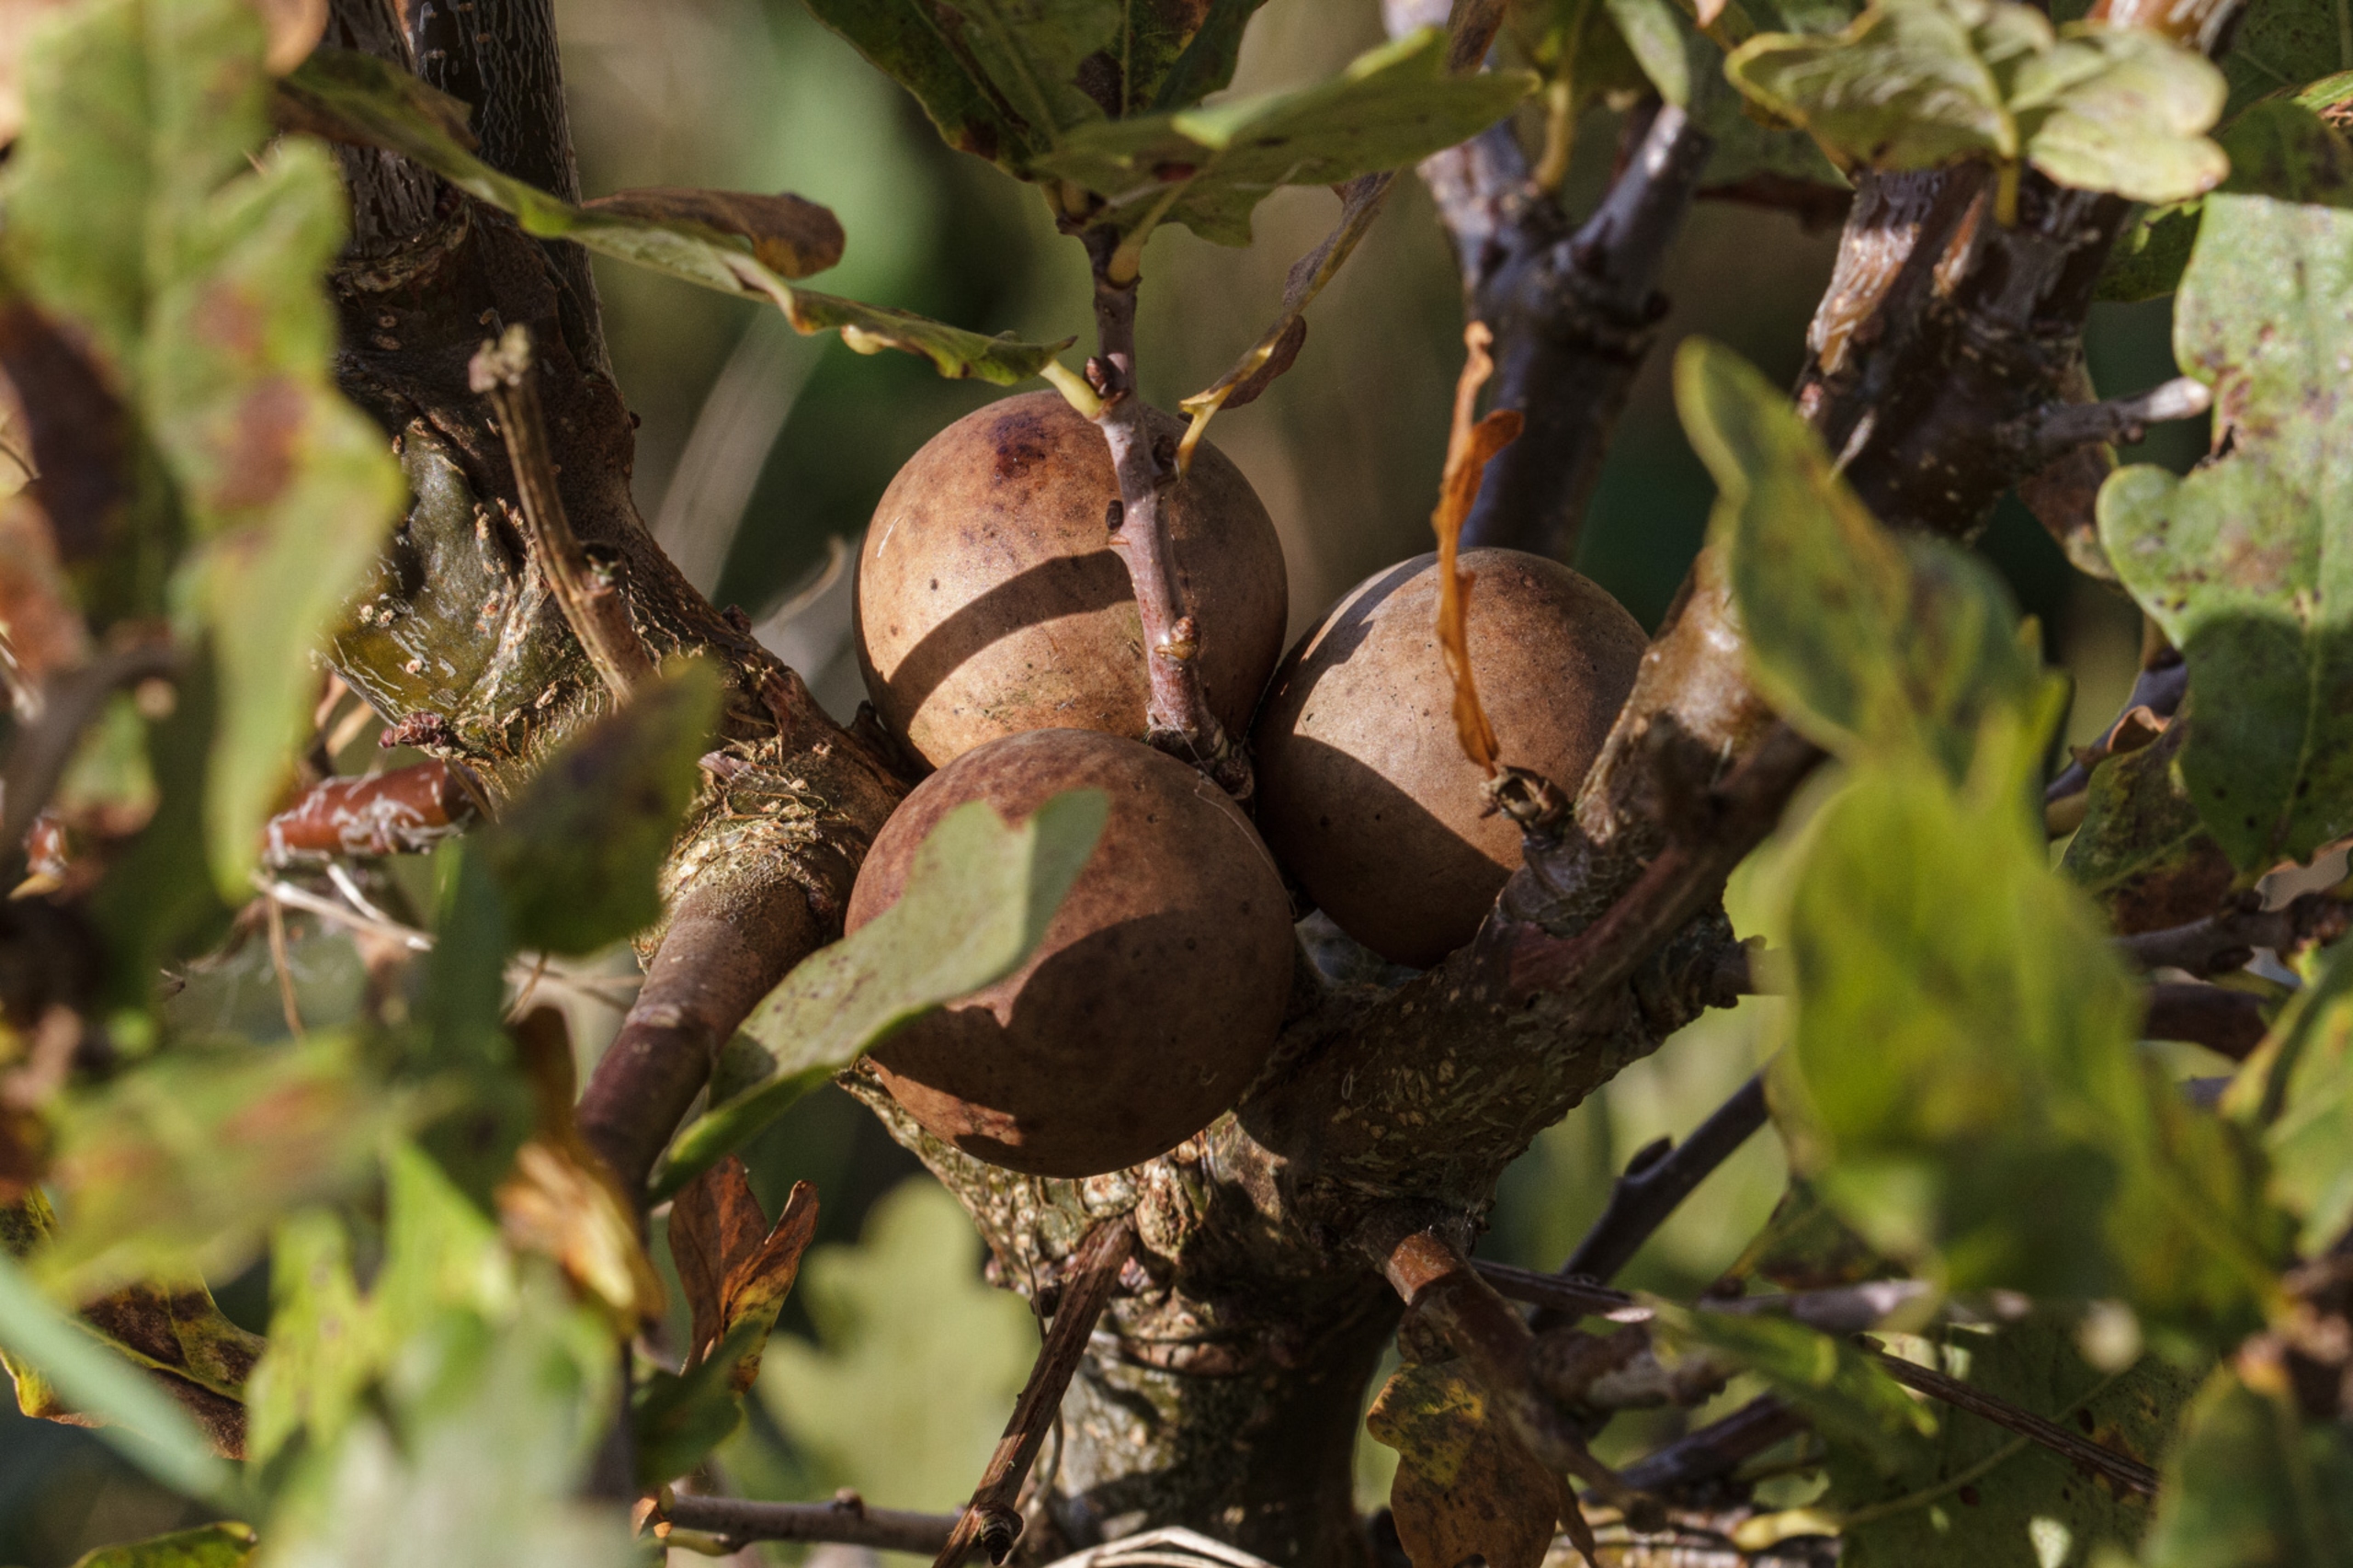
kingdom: Animalia
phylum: Arthropoda
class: Insecta
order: Hymenoptera
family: Cynipidae
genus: Andricus
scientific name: Andricus kollari
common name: Marmorkugle-galhveps
